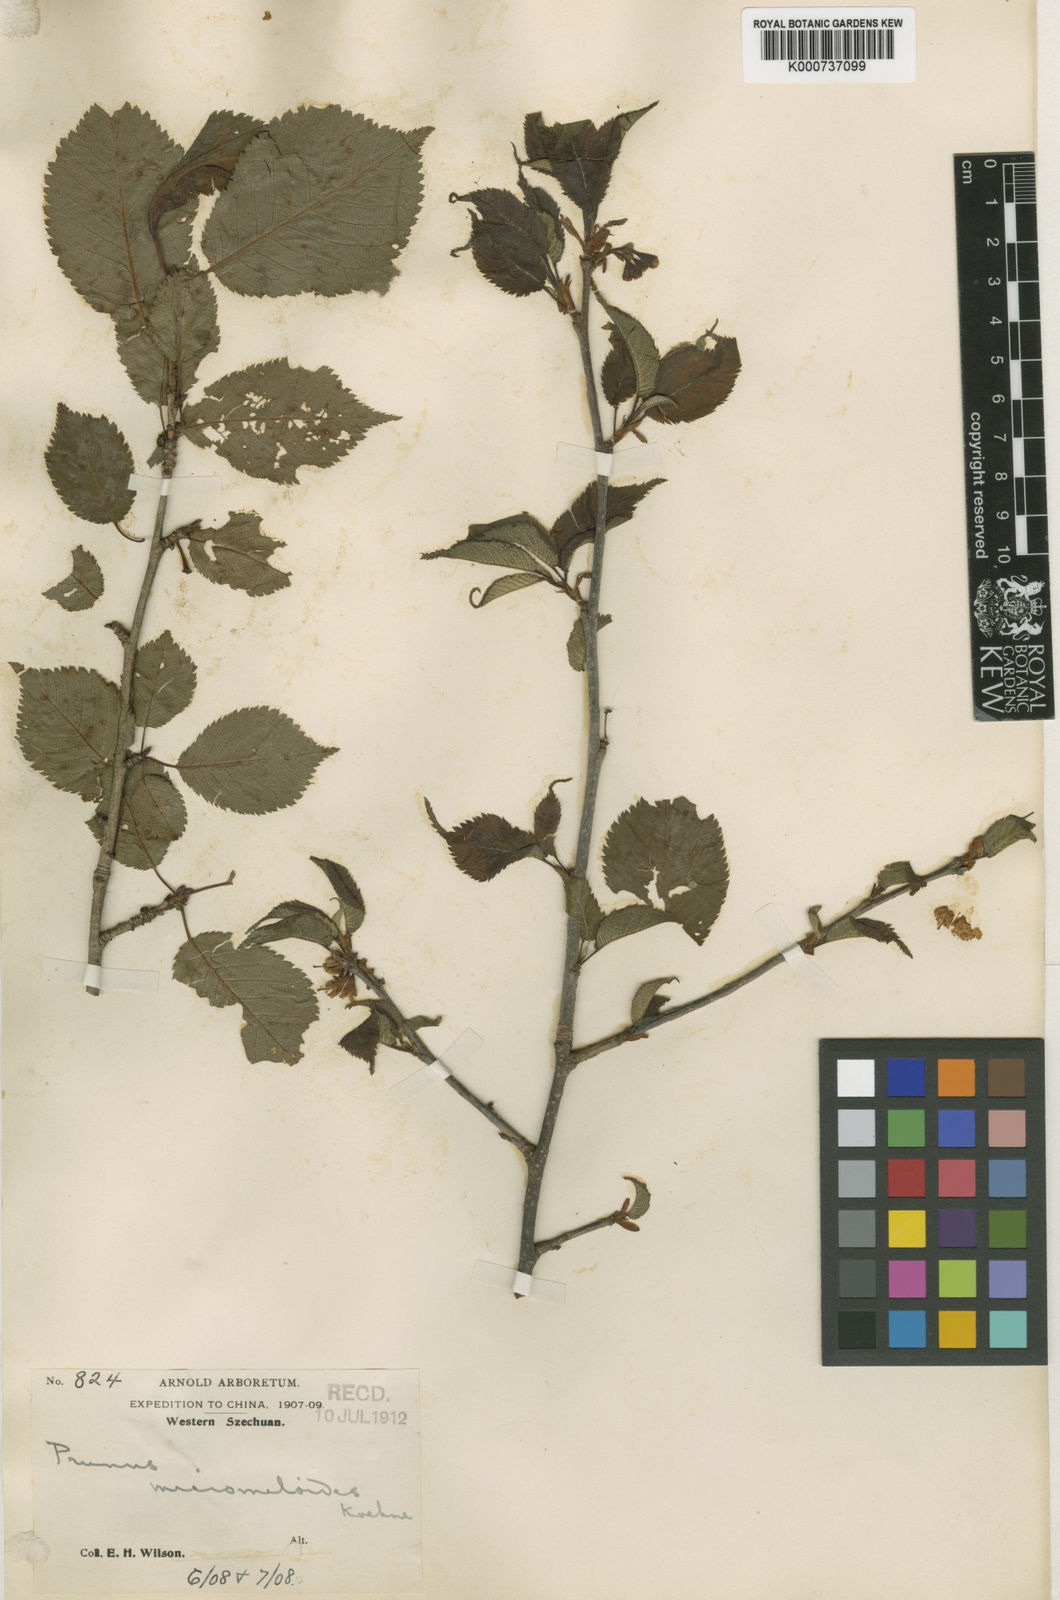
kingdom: Plantae
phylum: Tracheophyta
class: Magnoliopsida
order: Rosales
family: Rosaceae
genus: Prunus
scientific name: Prunus micromeloides
